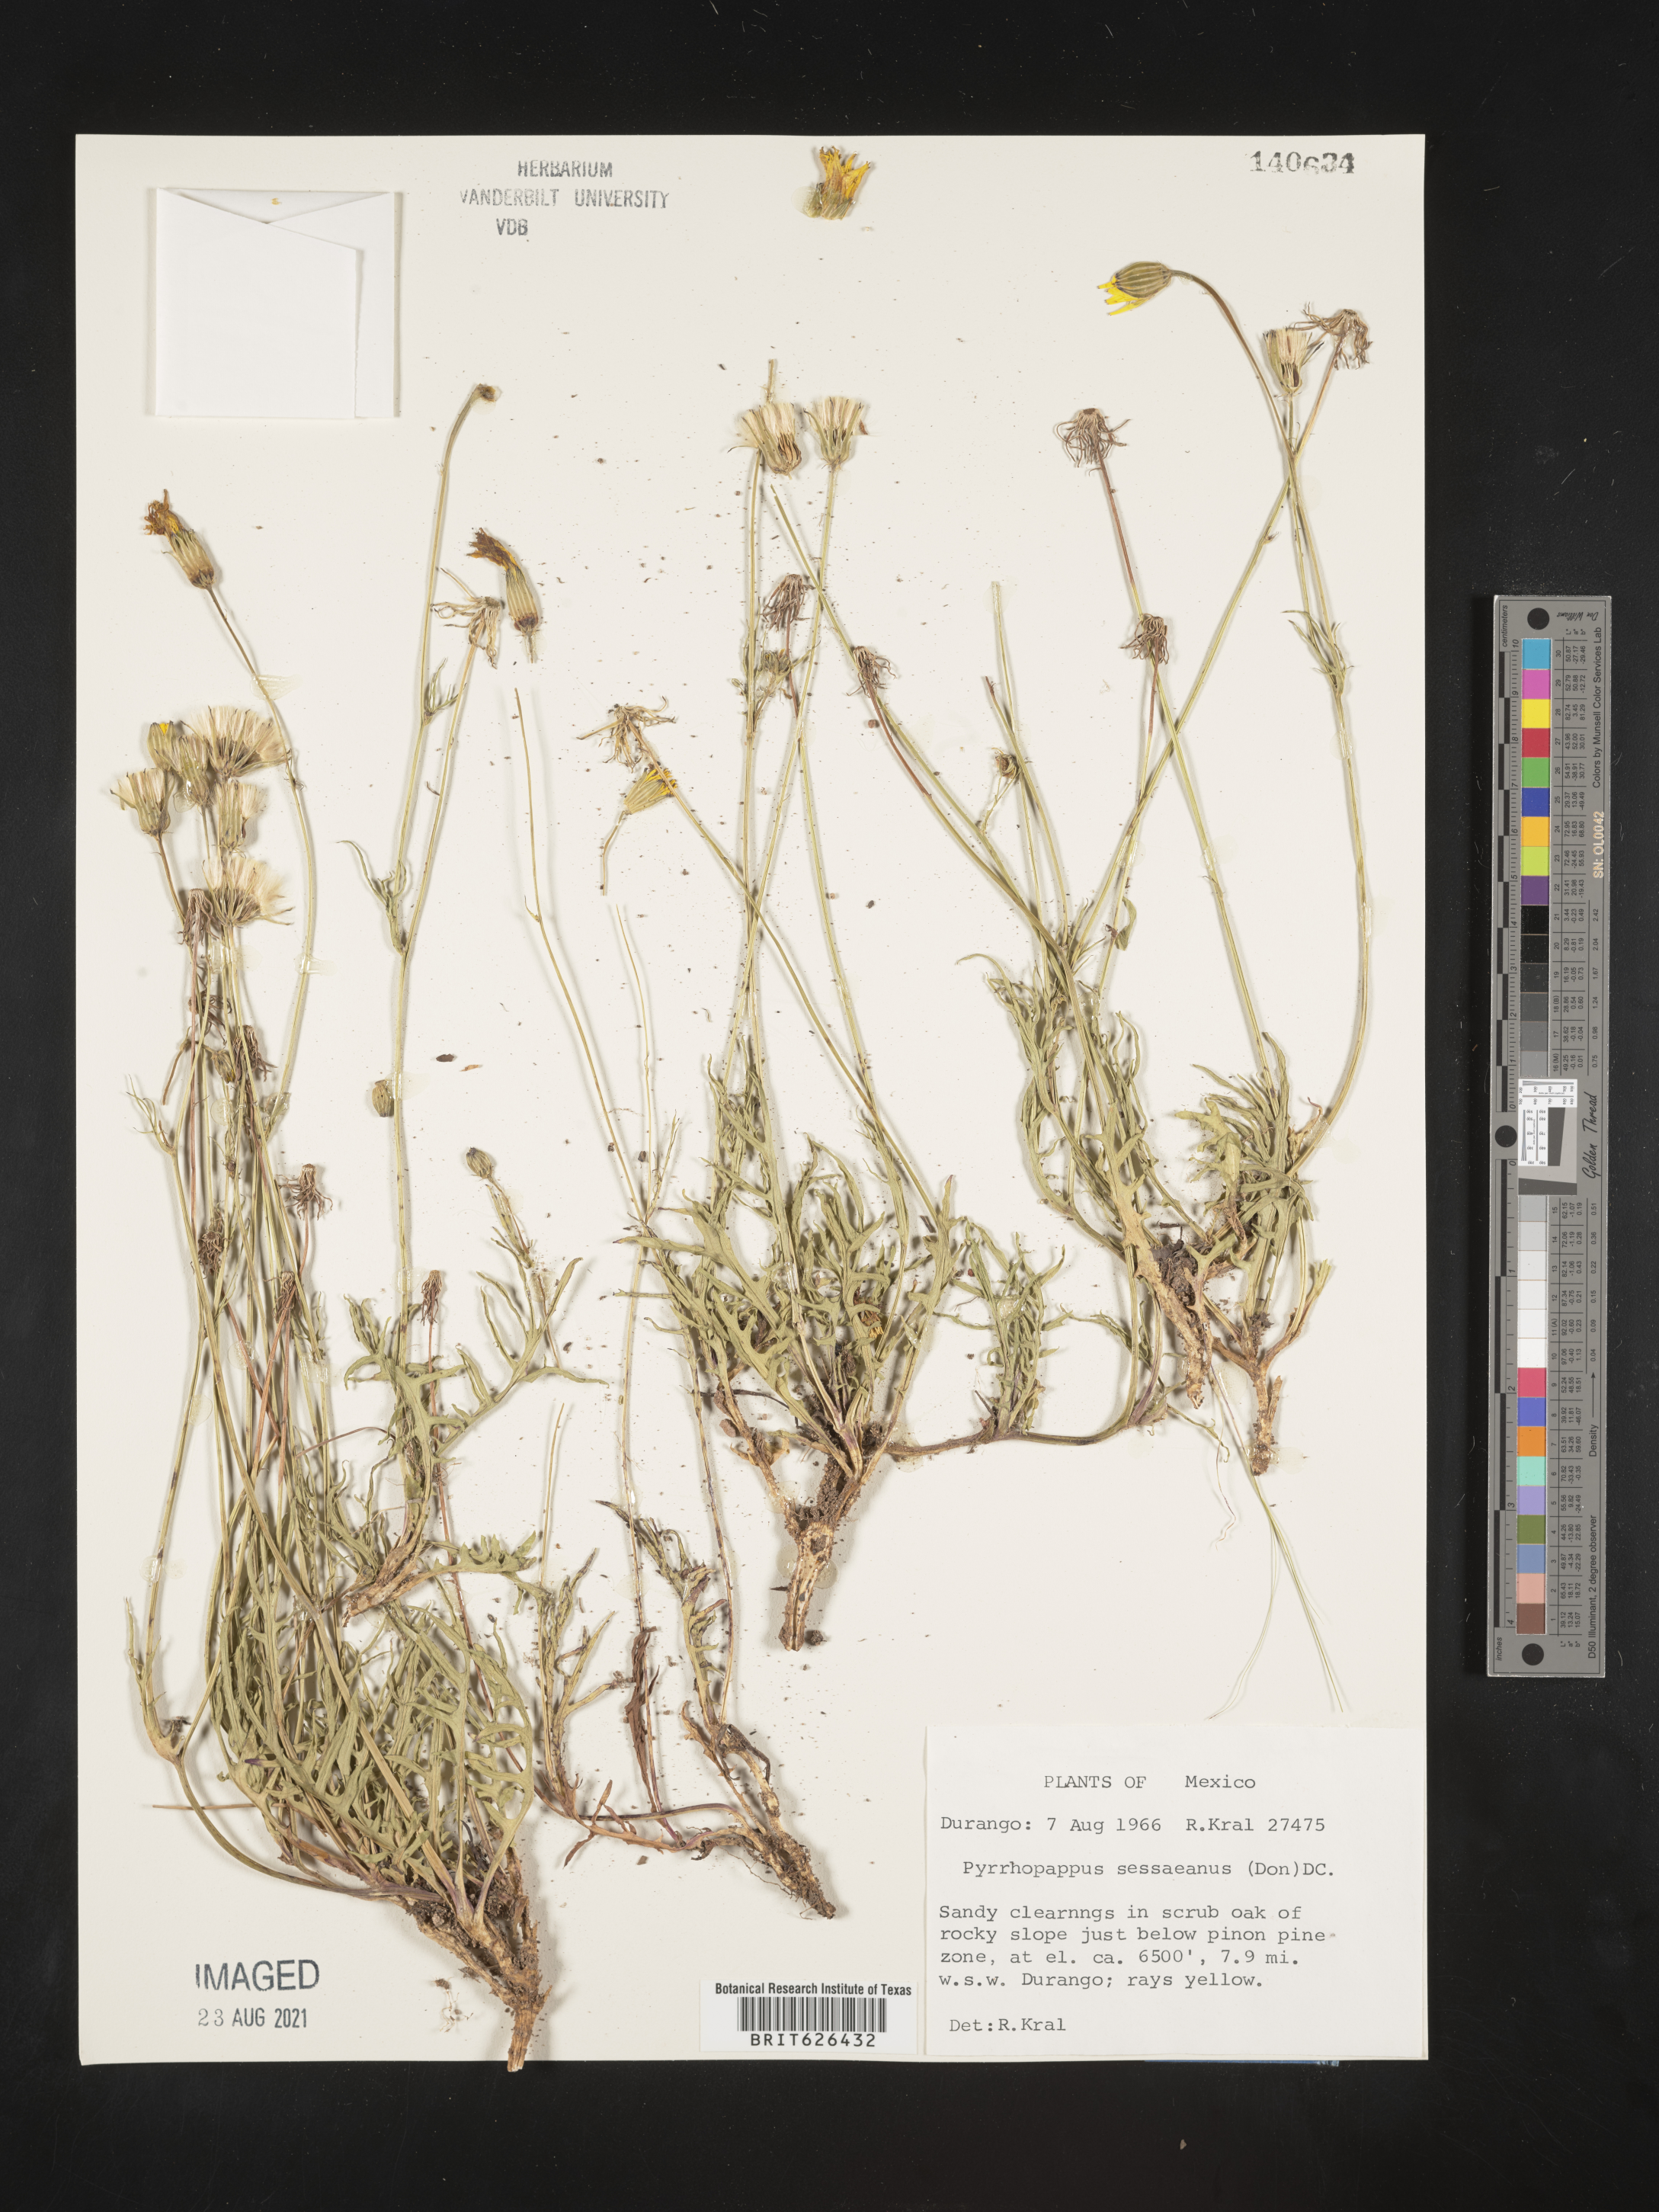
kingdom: Plantae
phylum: Tracheophyta
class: Magnoliopsida
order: Asterales
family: Asteraceae
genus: Pyrrhopappus
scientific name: Pyrrhopappus
